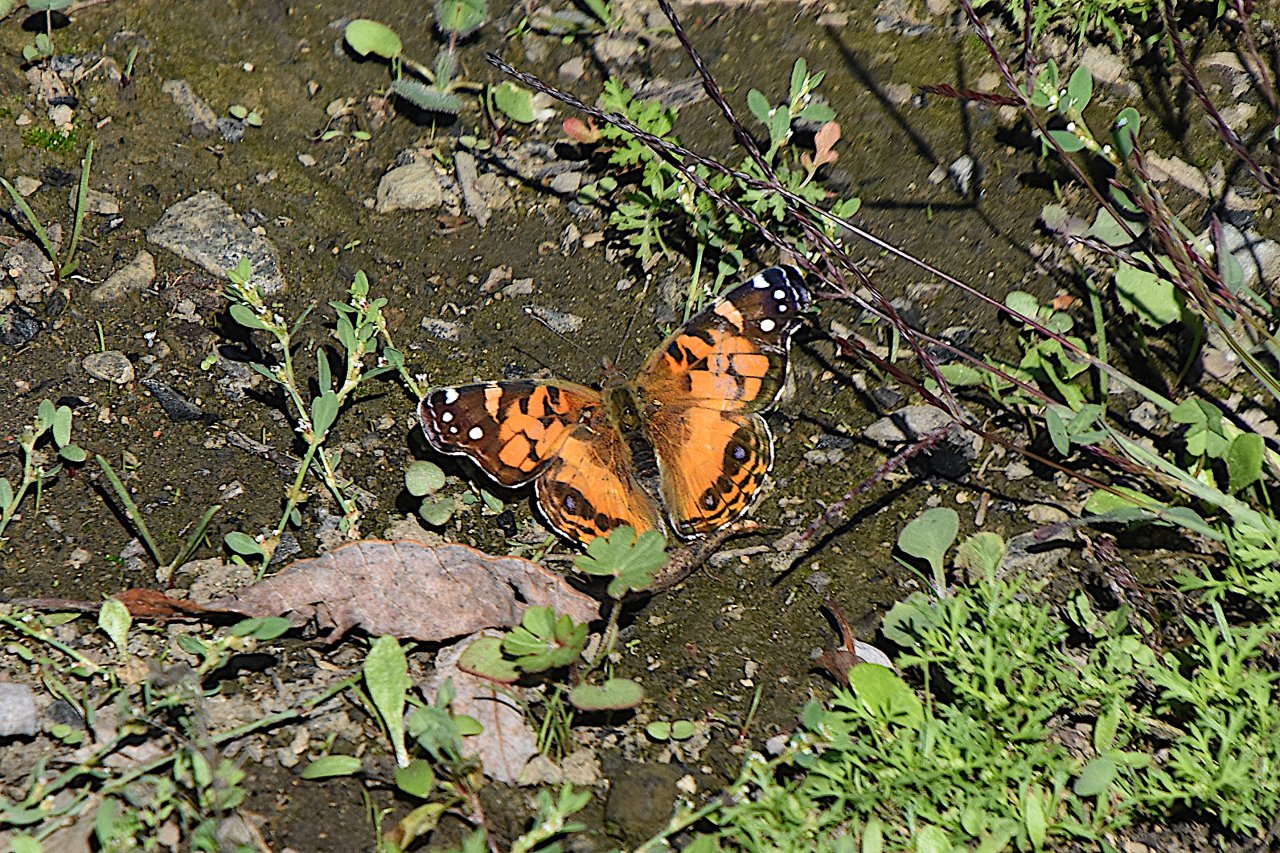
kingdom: Animalia
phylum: Arthropoda
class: Insecta
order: Lepidoptera
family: Nymphalidae
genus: Vanessa
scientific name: Vanessa virginiensis
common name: American Lady
